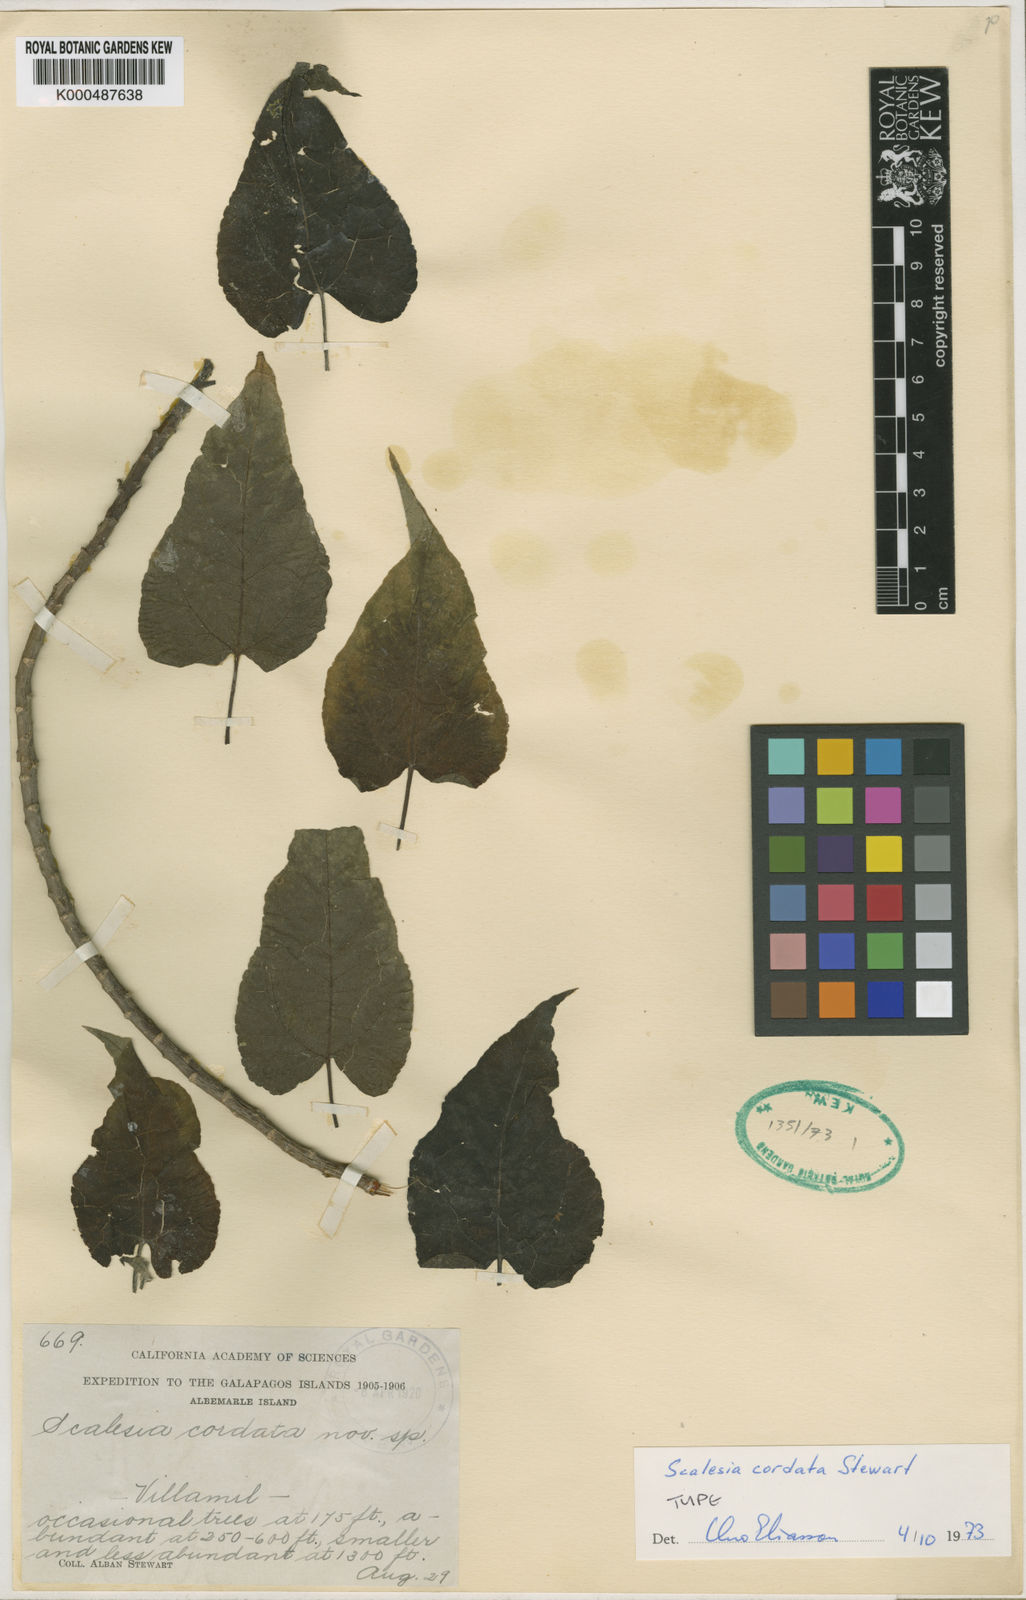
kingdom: Plantae
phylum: Tracheophyta
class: Magnoliopsida
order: Asterales
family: Asteraceae
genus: Scalesia
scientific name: Scalesia cordata
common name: Heart-leafed scalesia
